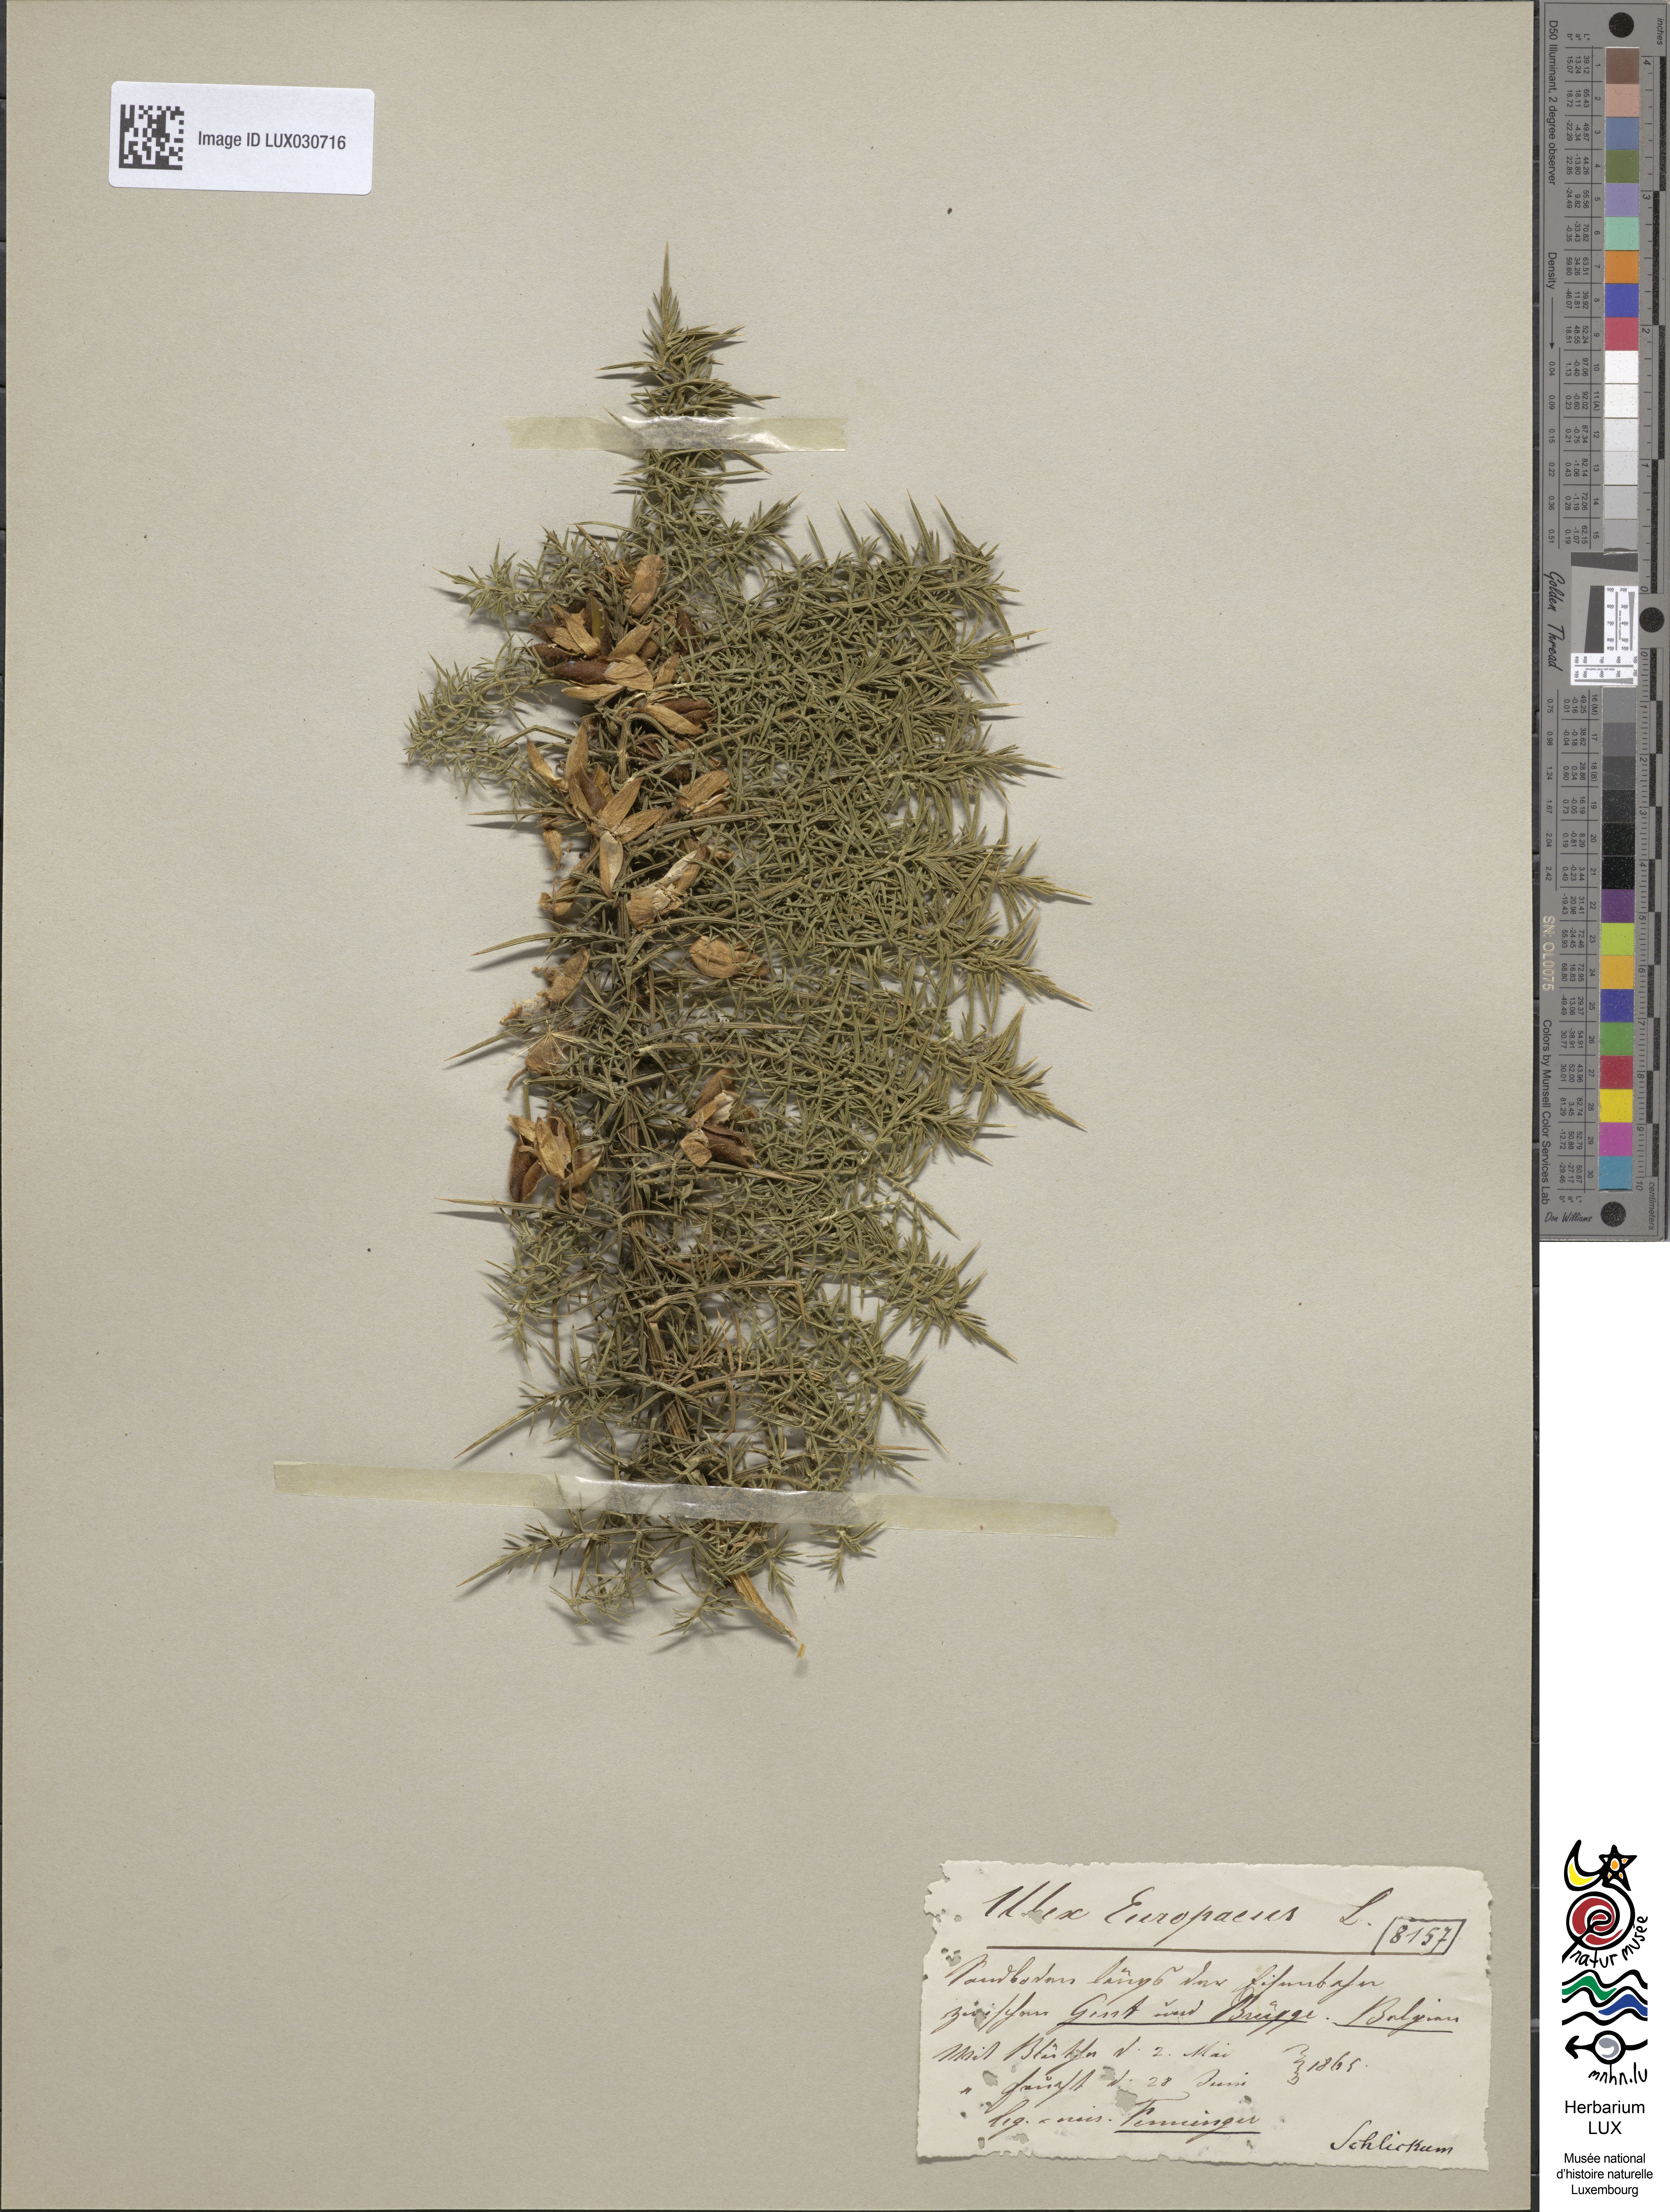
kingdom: Plantae
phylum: Tracheophyta
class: Magnoliopsida
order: Fabales
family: Fabaceae
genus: Ulex
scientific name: Ulex europaeus
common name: Common gorse
